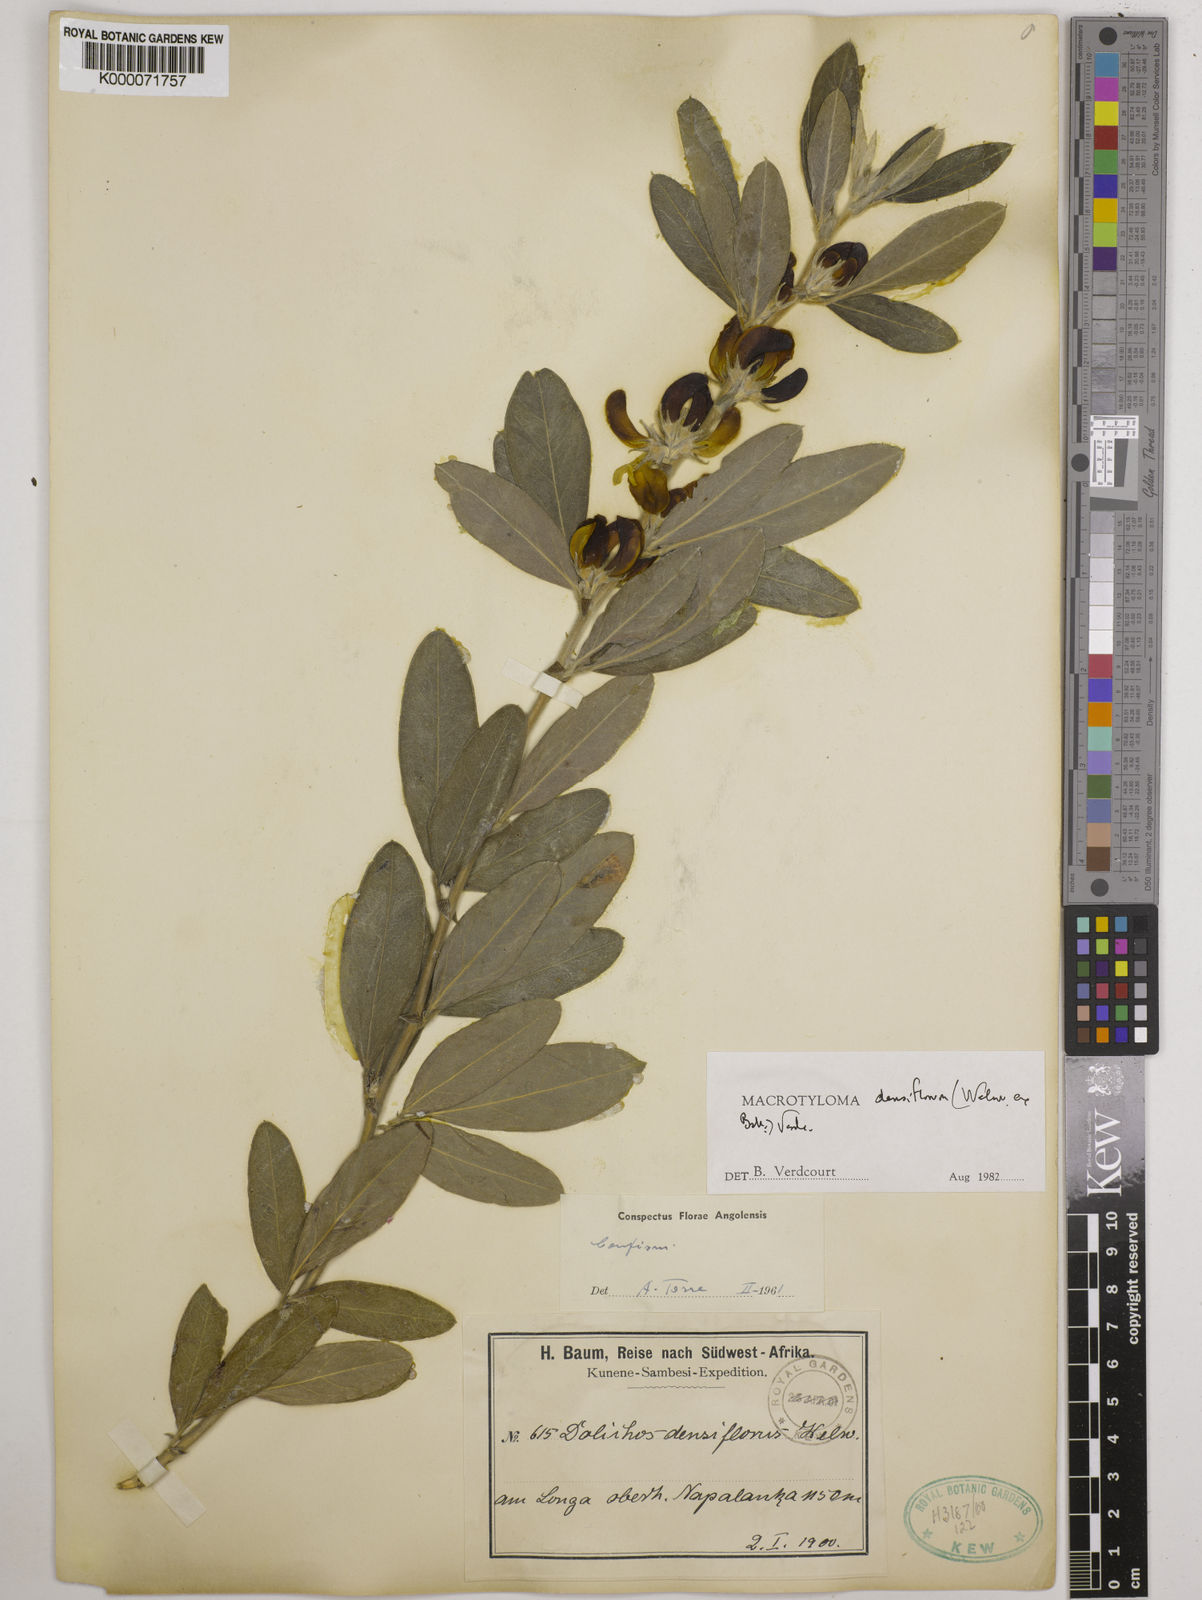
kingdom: Plantae
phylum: Tracheophyta
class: Magnoliopsida
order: Fabales
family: Fabaceae
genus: Macrotyloma
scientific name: Macrotyloma densiflorum
